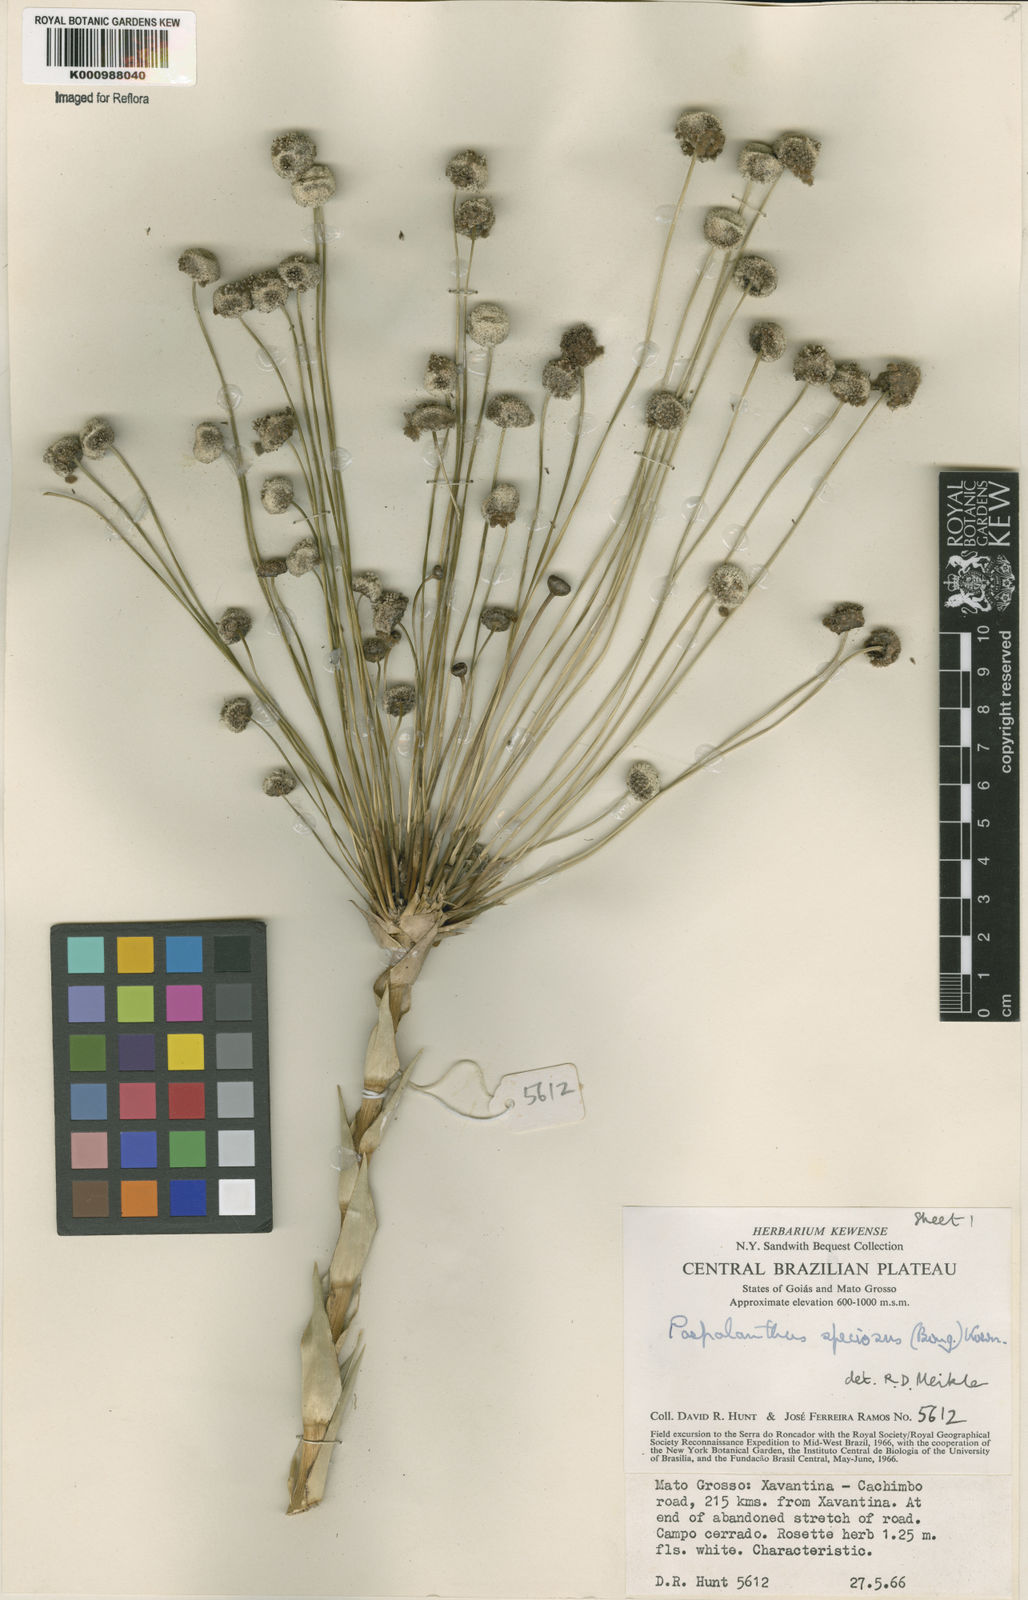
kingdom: Plantae
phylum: Tracheophyta
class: Liliopsida
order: Poales
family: Eriocaulaceae
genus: Paepalanthus
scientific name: Paepalanthus
